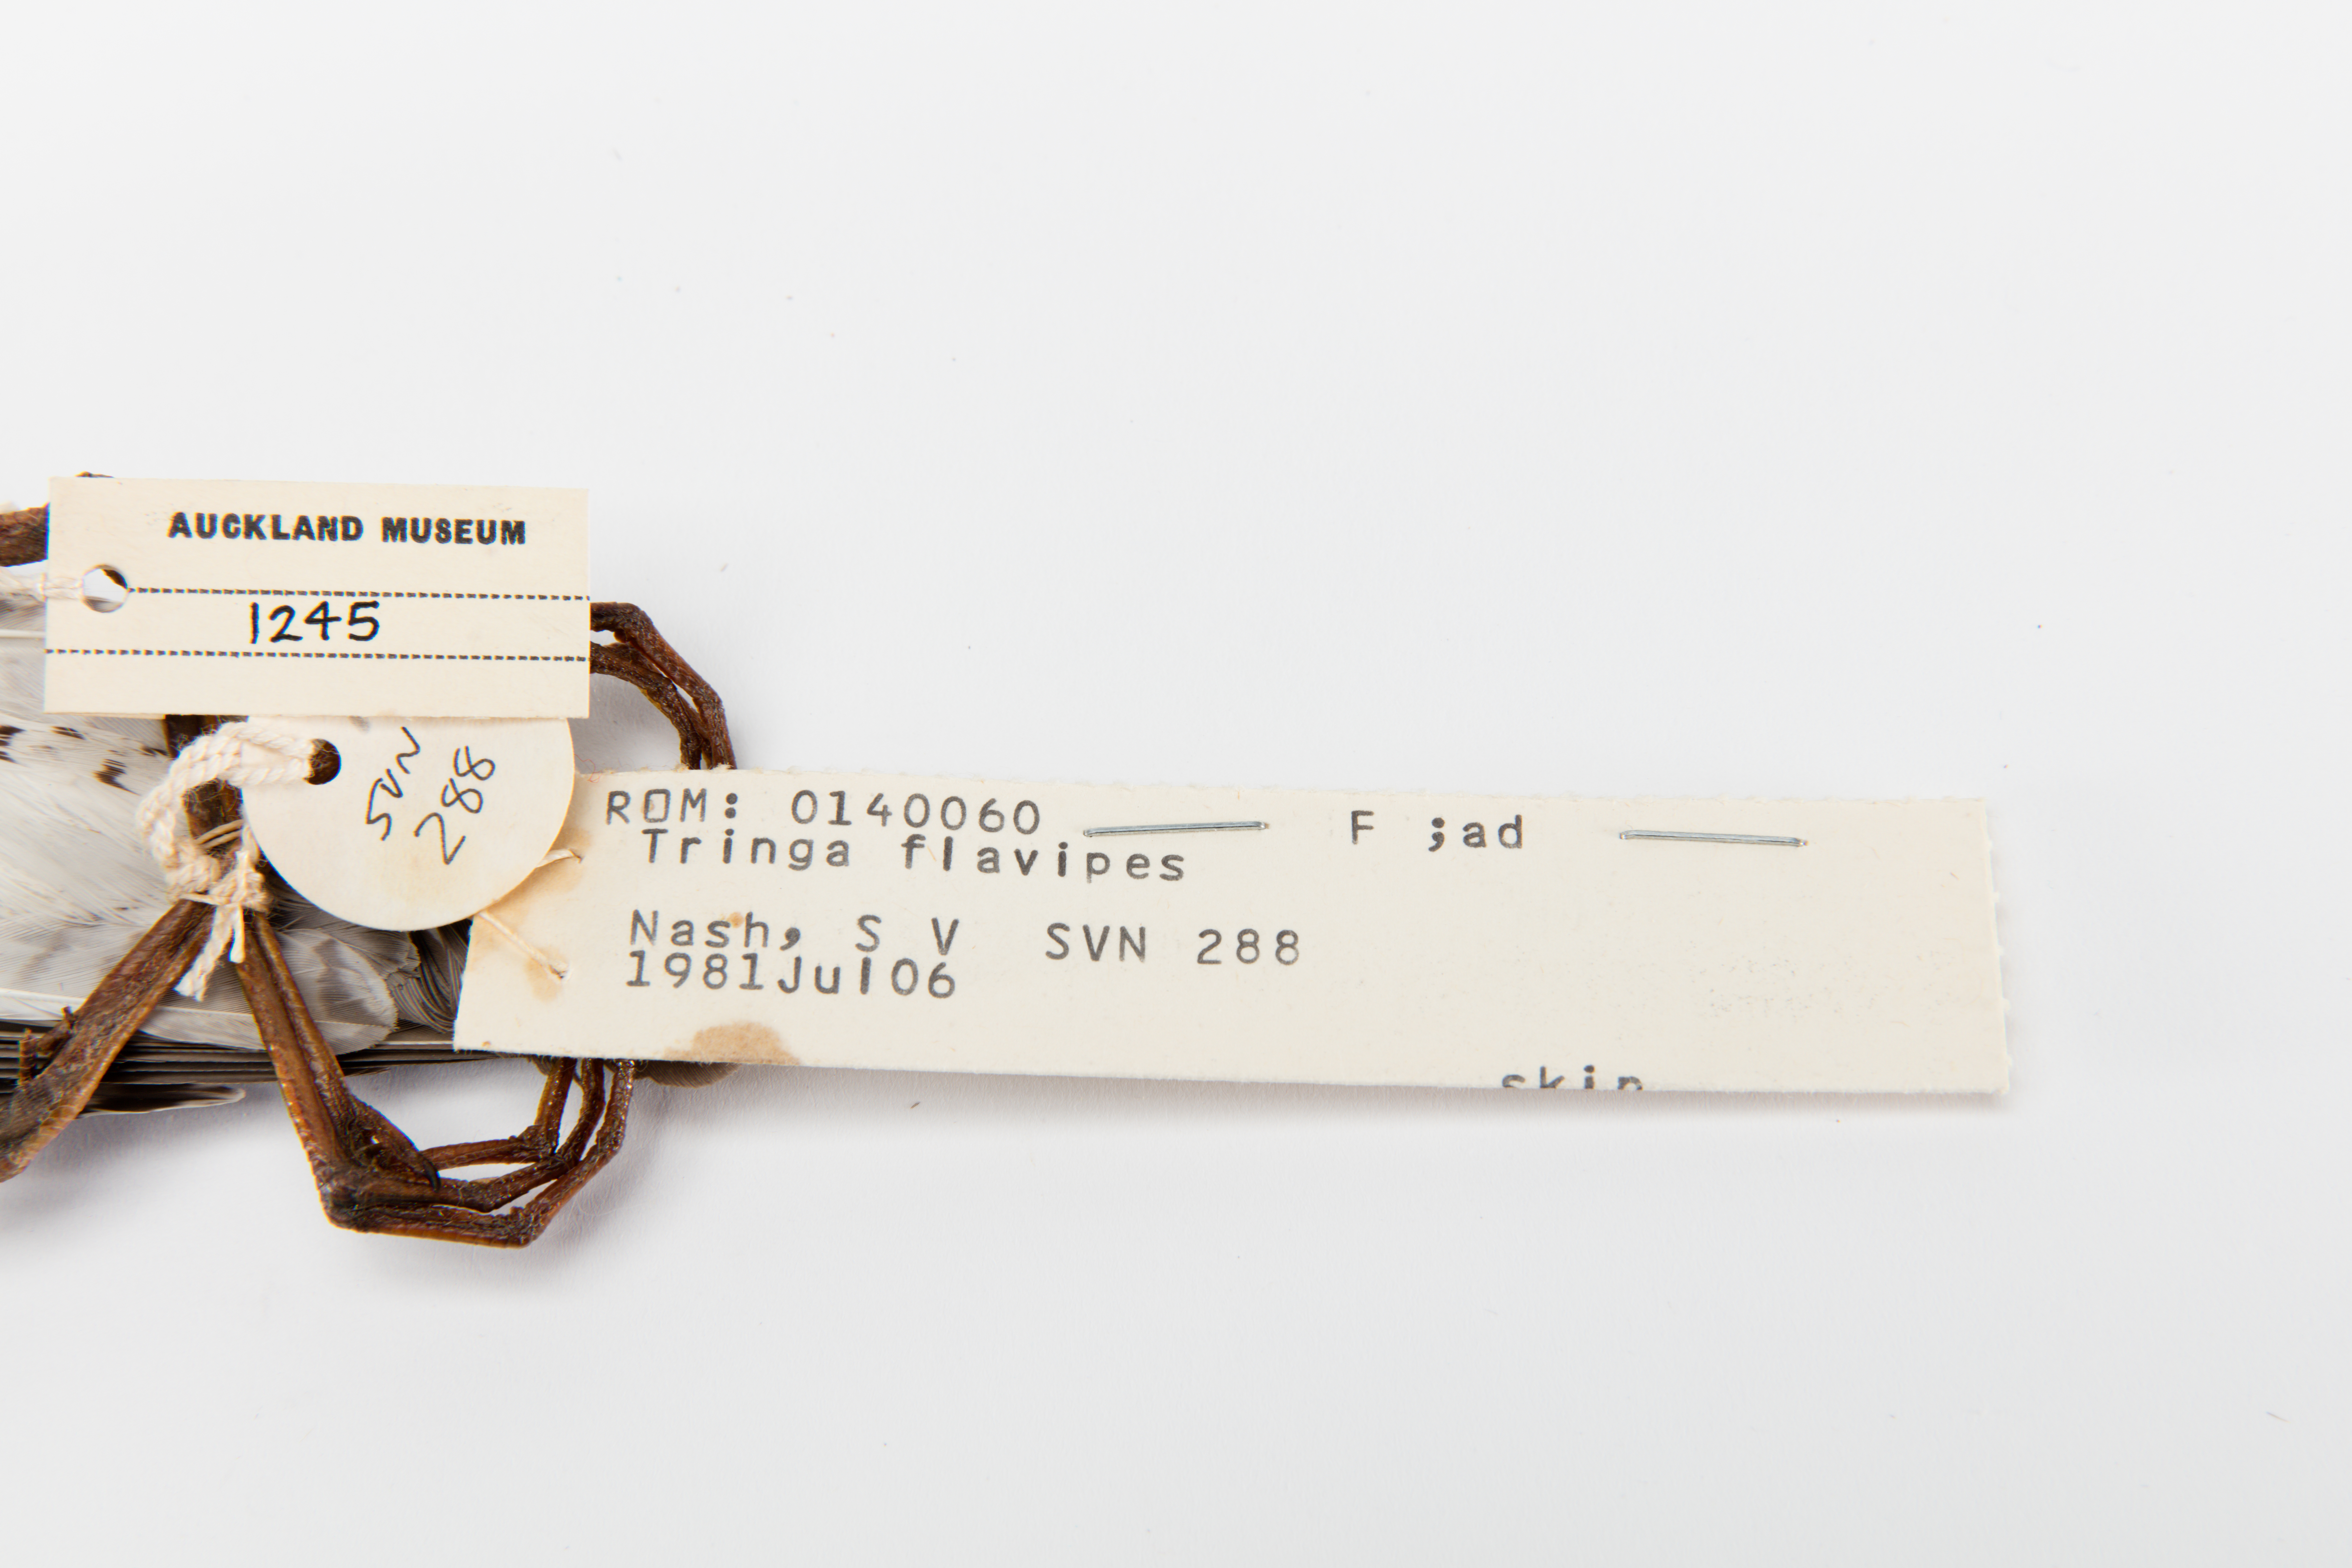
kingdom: Animalia
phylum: Chordata
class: Aves
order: Charadriiformes
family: Scolopacidae
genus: Tringa
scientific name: Tringa flavipes
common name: Lesser yellowlegs
